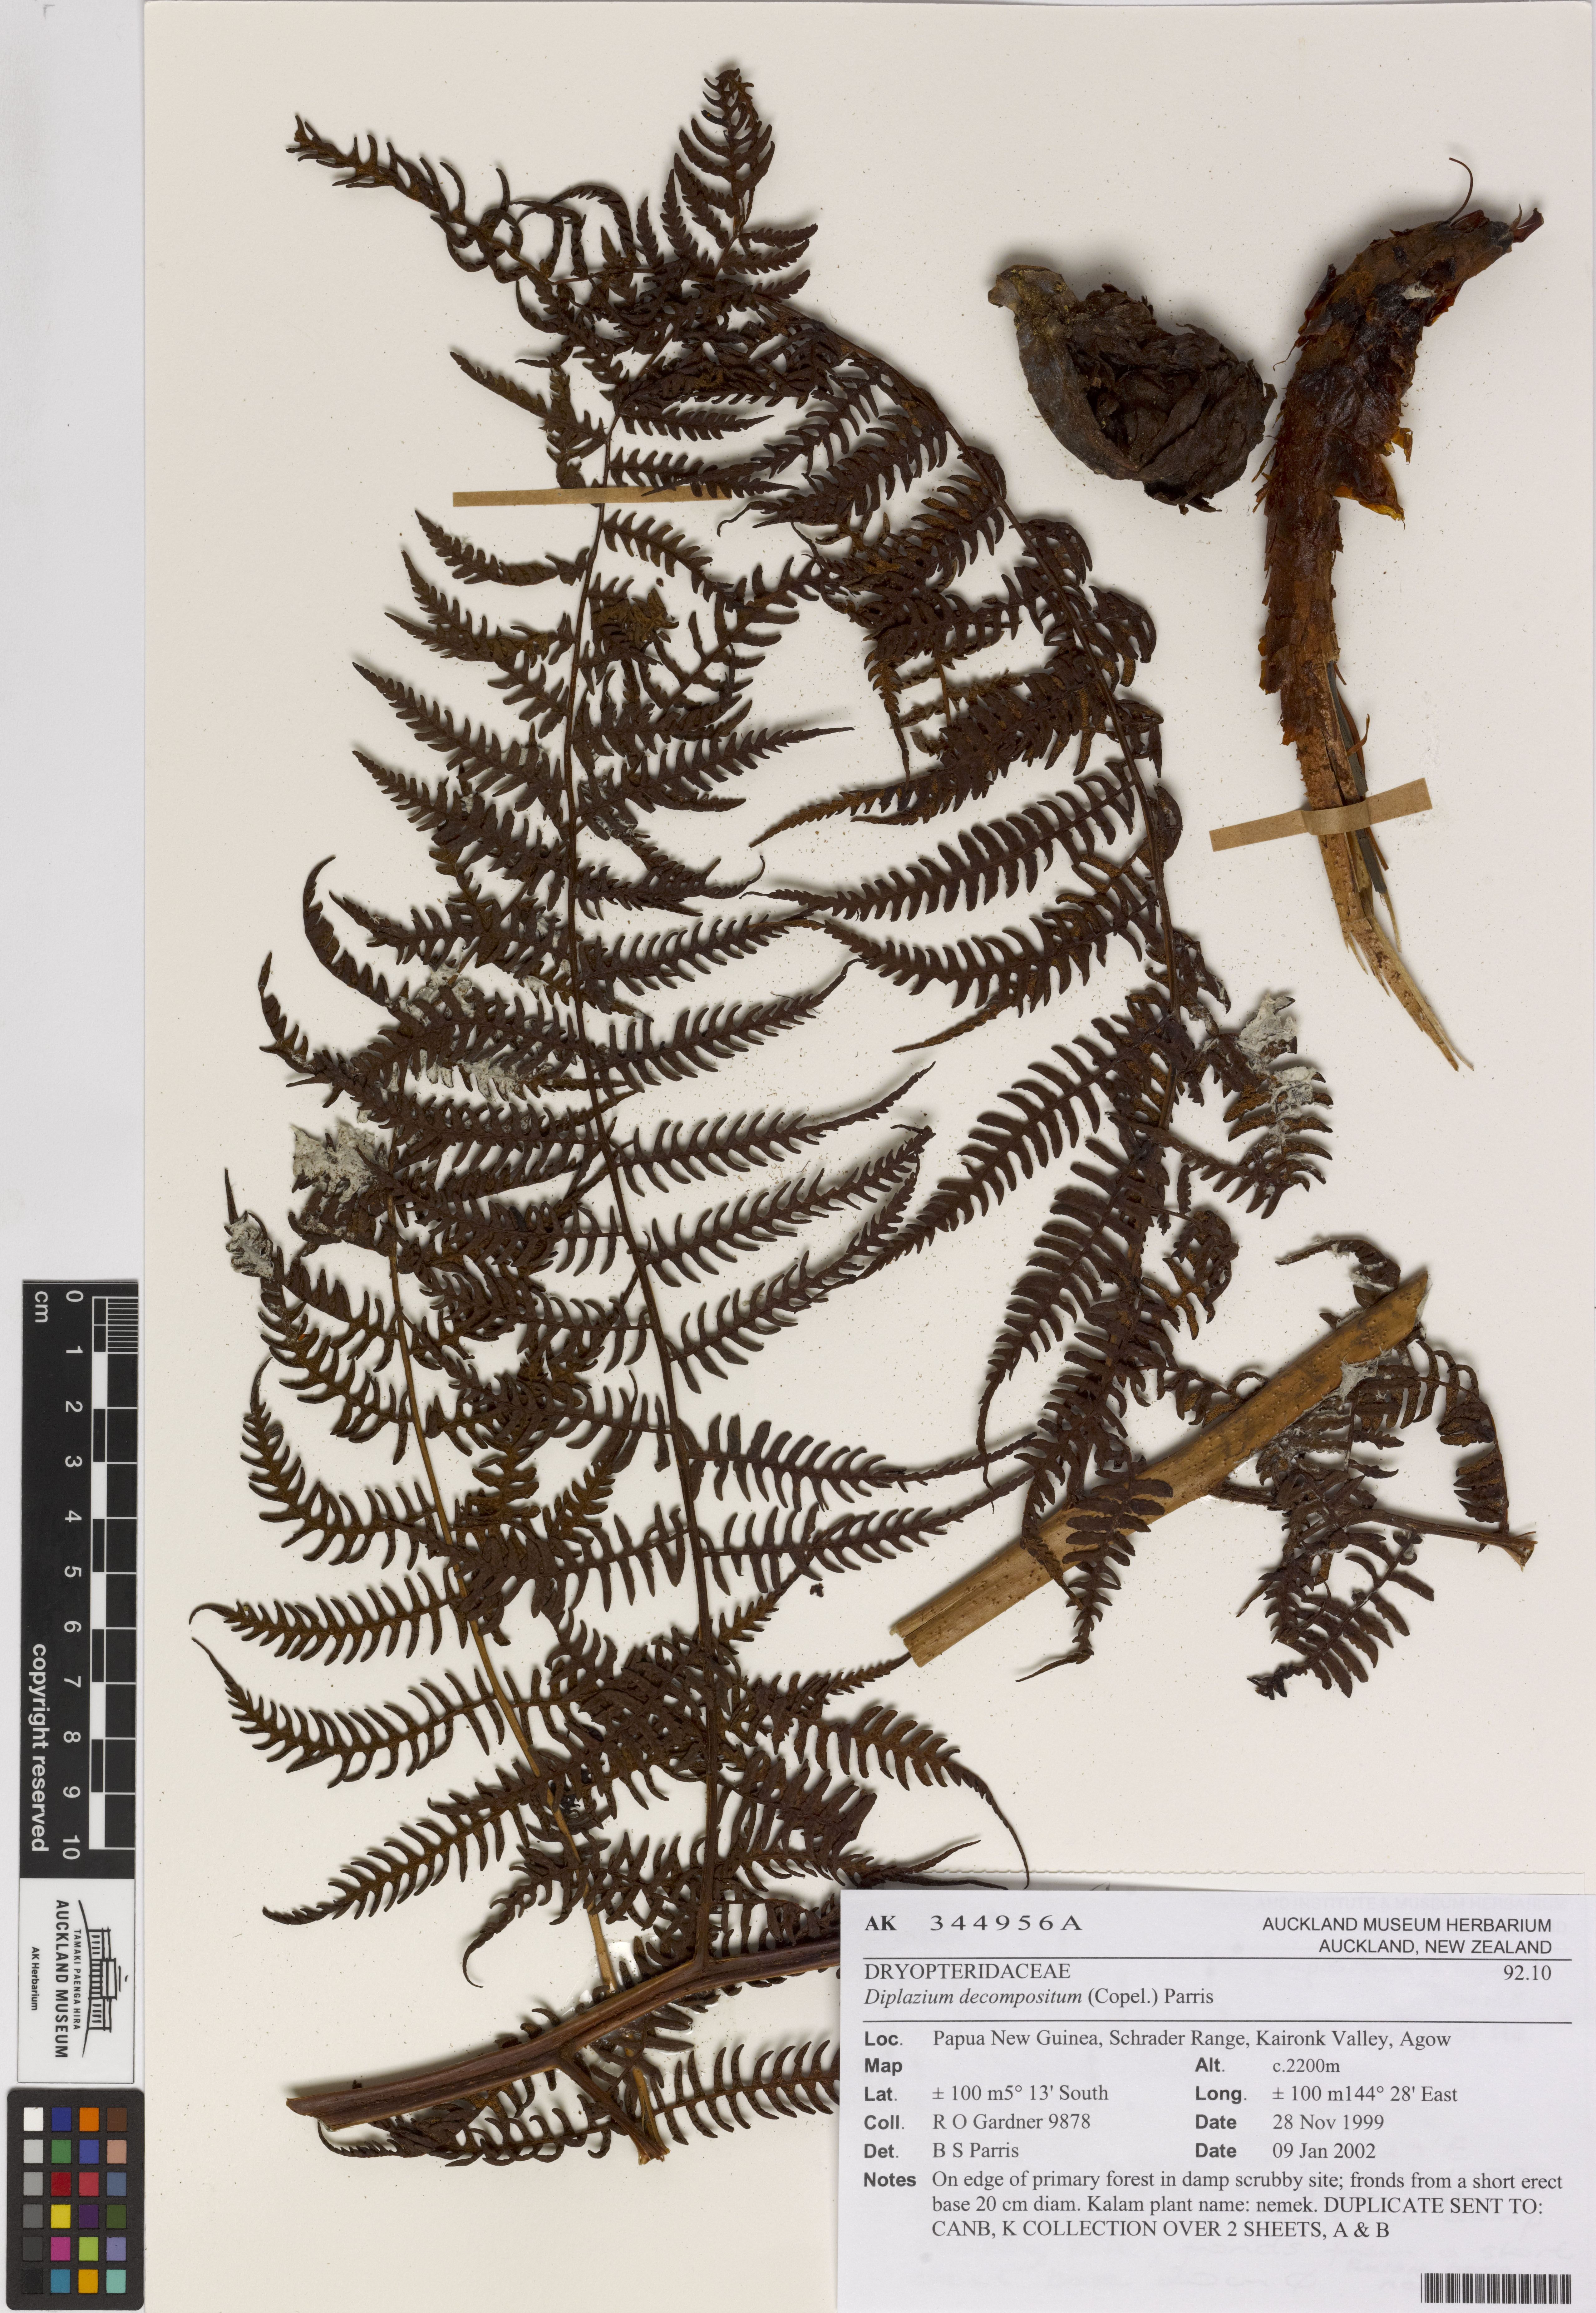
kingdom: Plantae
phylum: Tracheophyta
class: Polypodiopsida
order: Polypodiales
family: Athyriaceae
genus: Diplazium
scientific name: Diplazium decompositum
